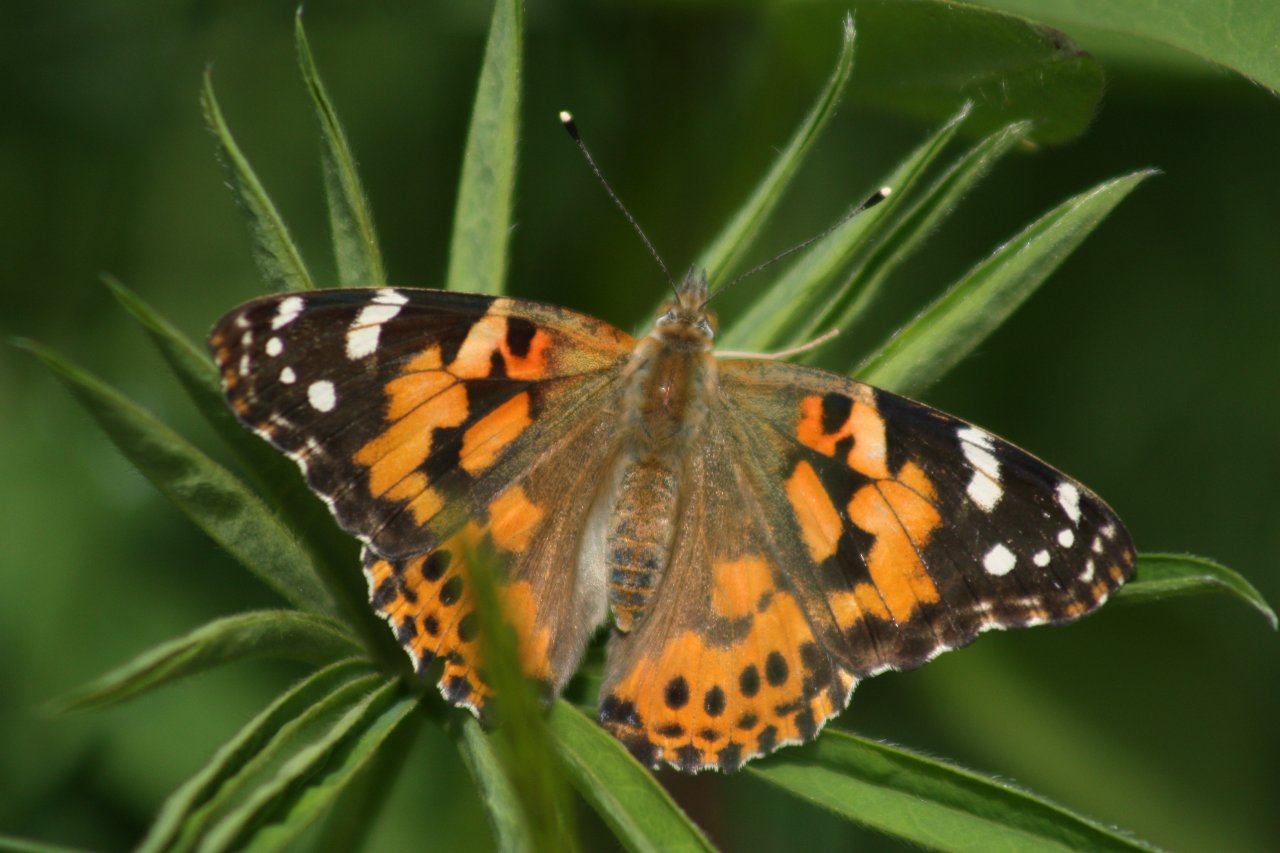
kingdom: Animalia
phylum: Arthropoda
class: Insecta
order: Lepidoptera
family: Nymphalidae
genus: Vanessa
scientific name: Vanessa cardui
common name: Painted Lady
